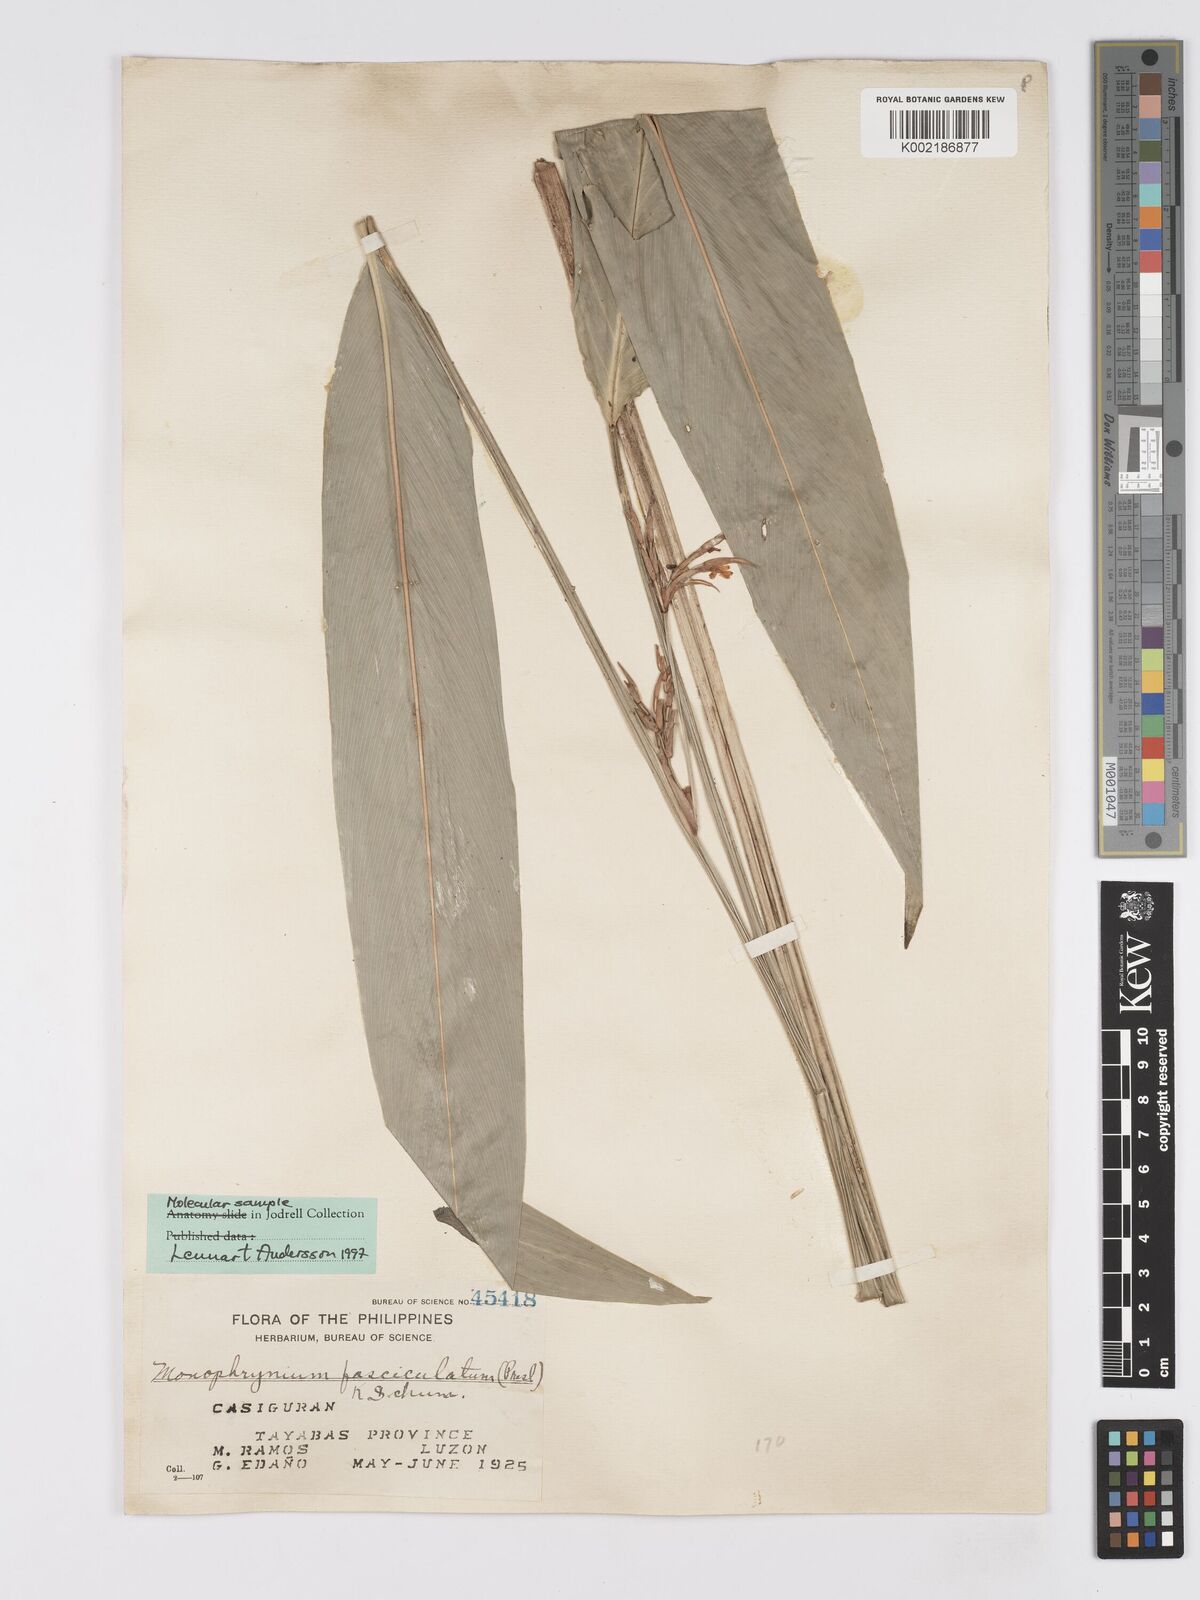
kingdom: Plantae
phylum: Tracheophyta
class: Liliopsida
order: Zingiberales
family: Marantaceae
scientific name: Marantaceae
